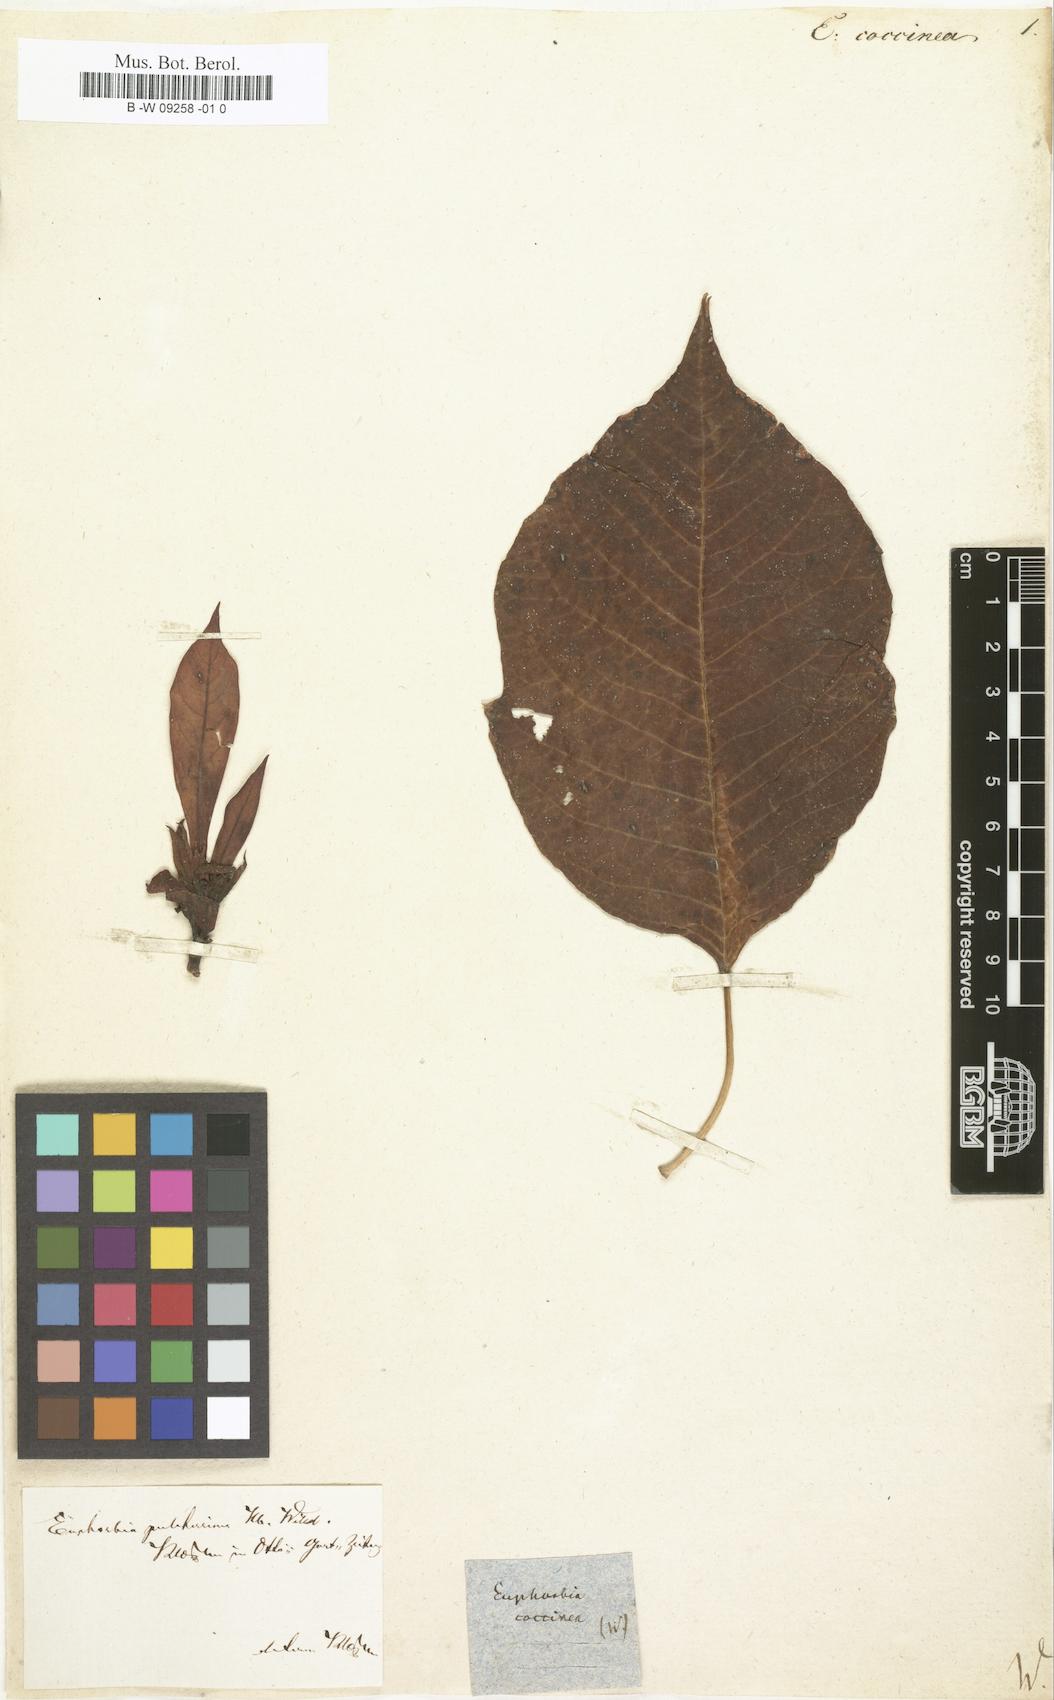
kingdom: Plantae
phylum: Tracheophyta
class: Magnoliopsida
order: Malpighiales
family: Euphorbiaceae
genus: Euphorbia
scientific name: Euphorbia coccinea
